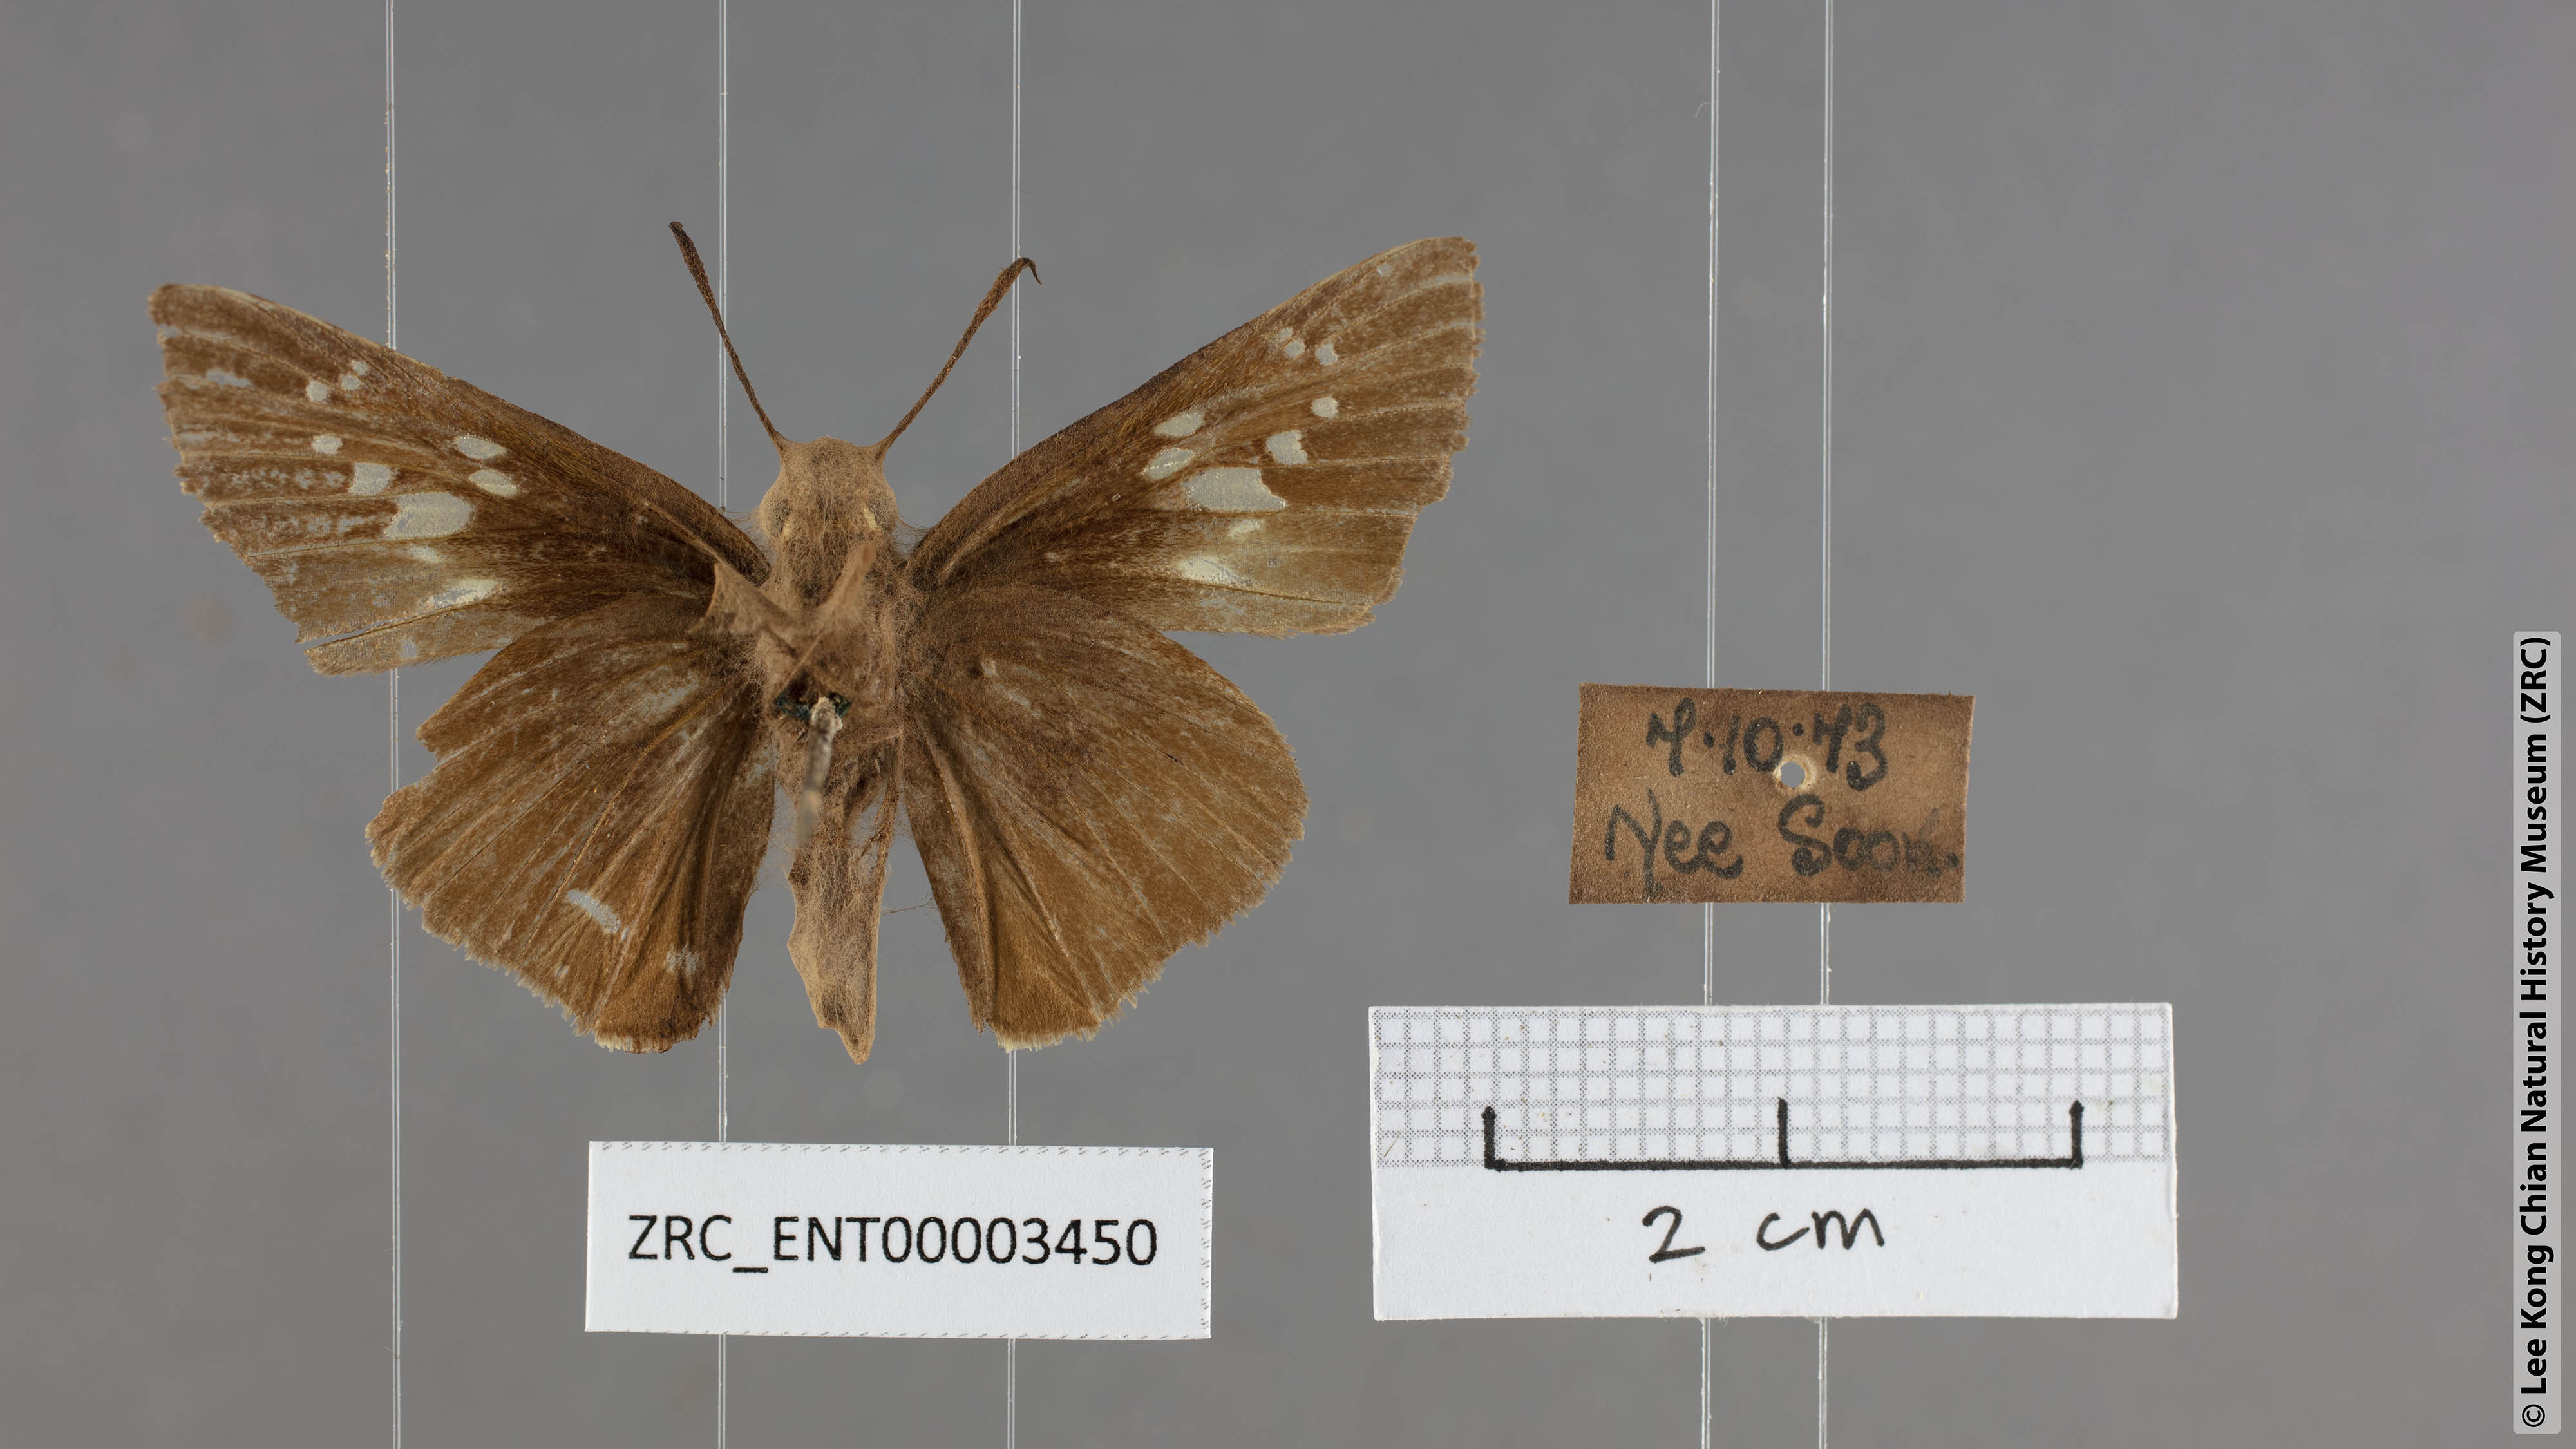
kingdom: Animalia
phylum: Arthropoda
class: Insecta
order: Lepidoptera
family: Hesperiidae
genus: Polytremis
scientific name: Polytremis lubricans
